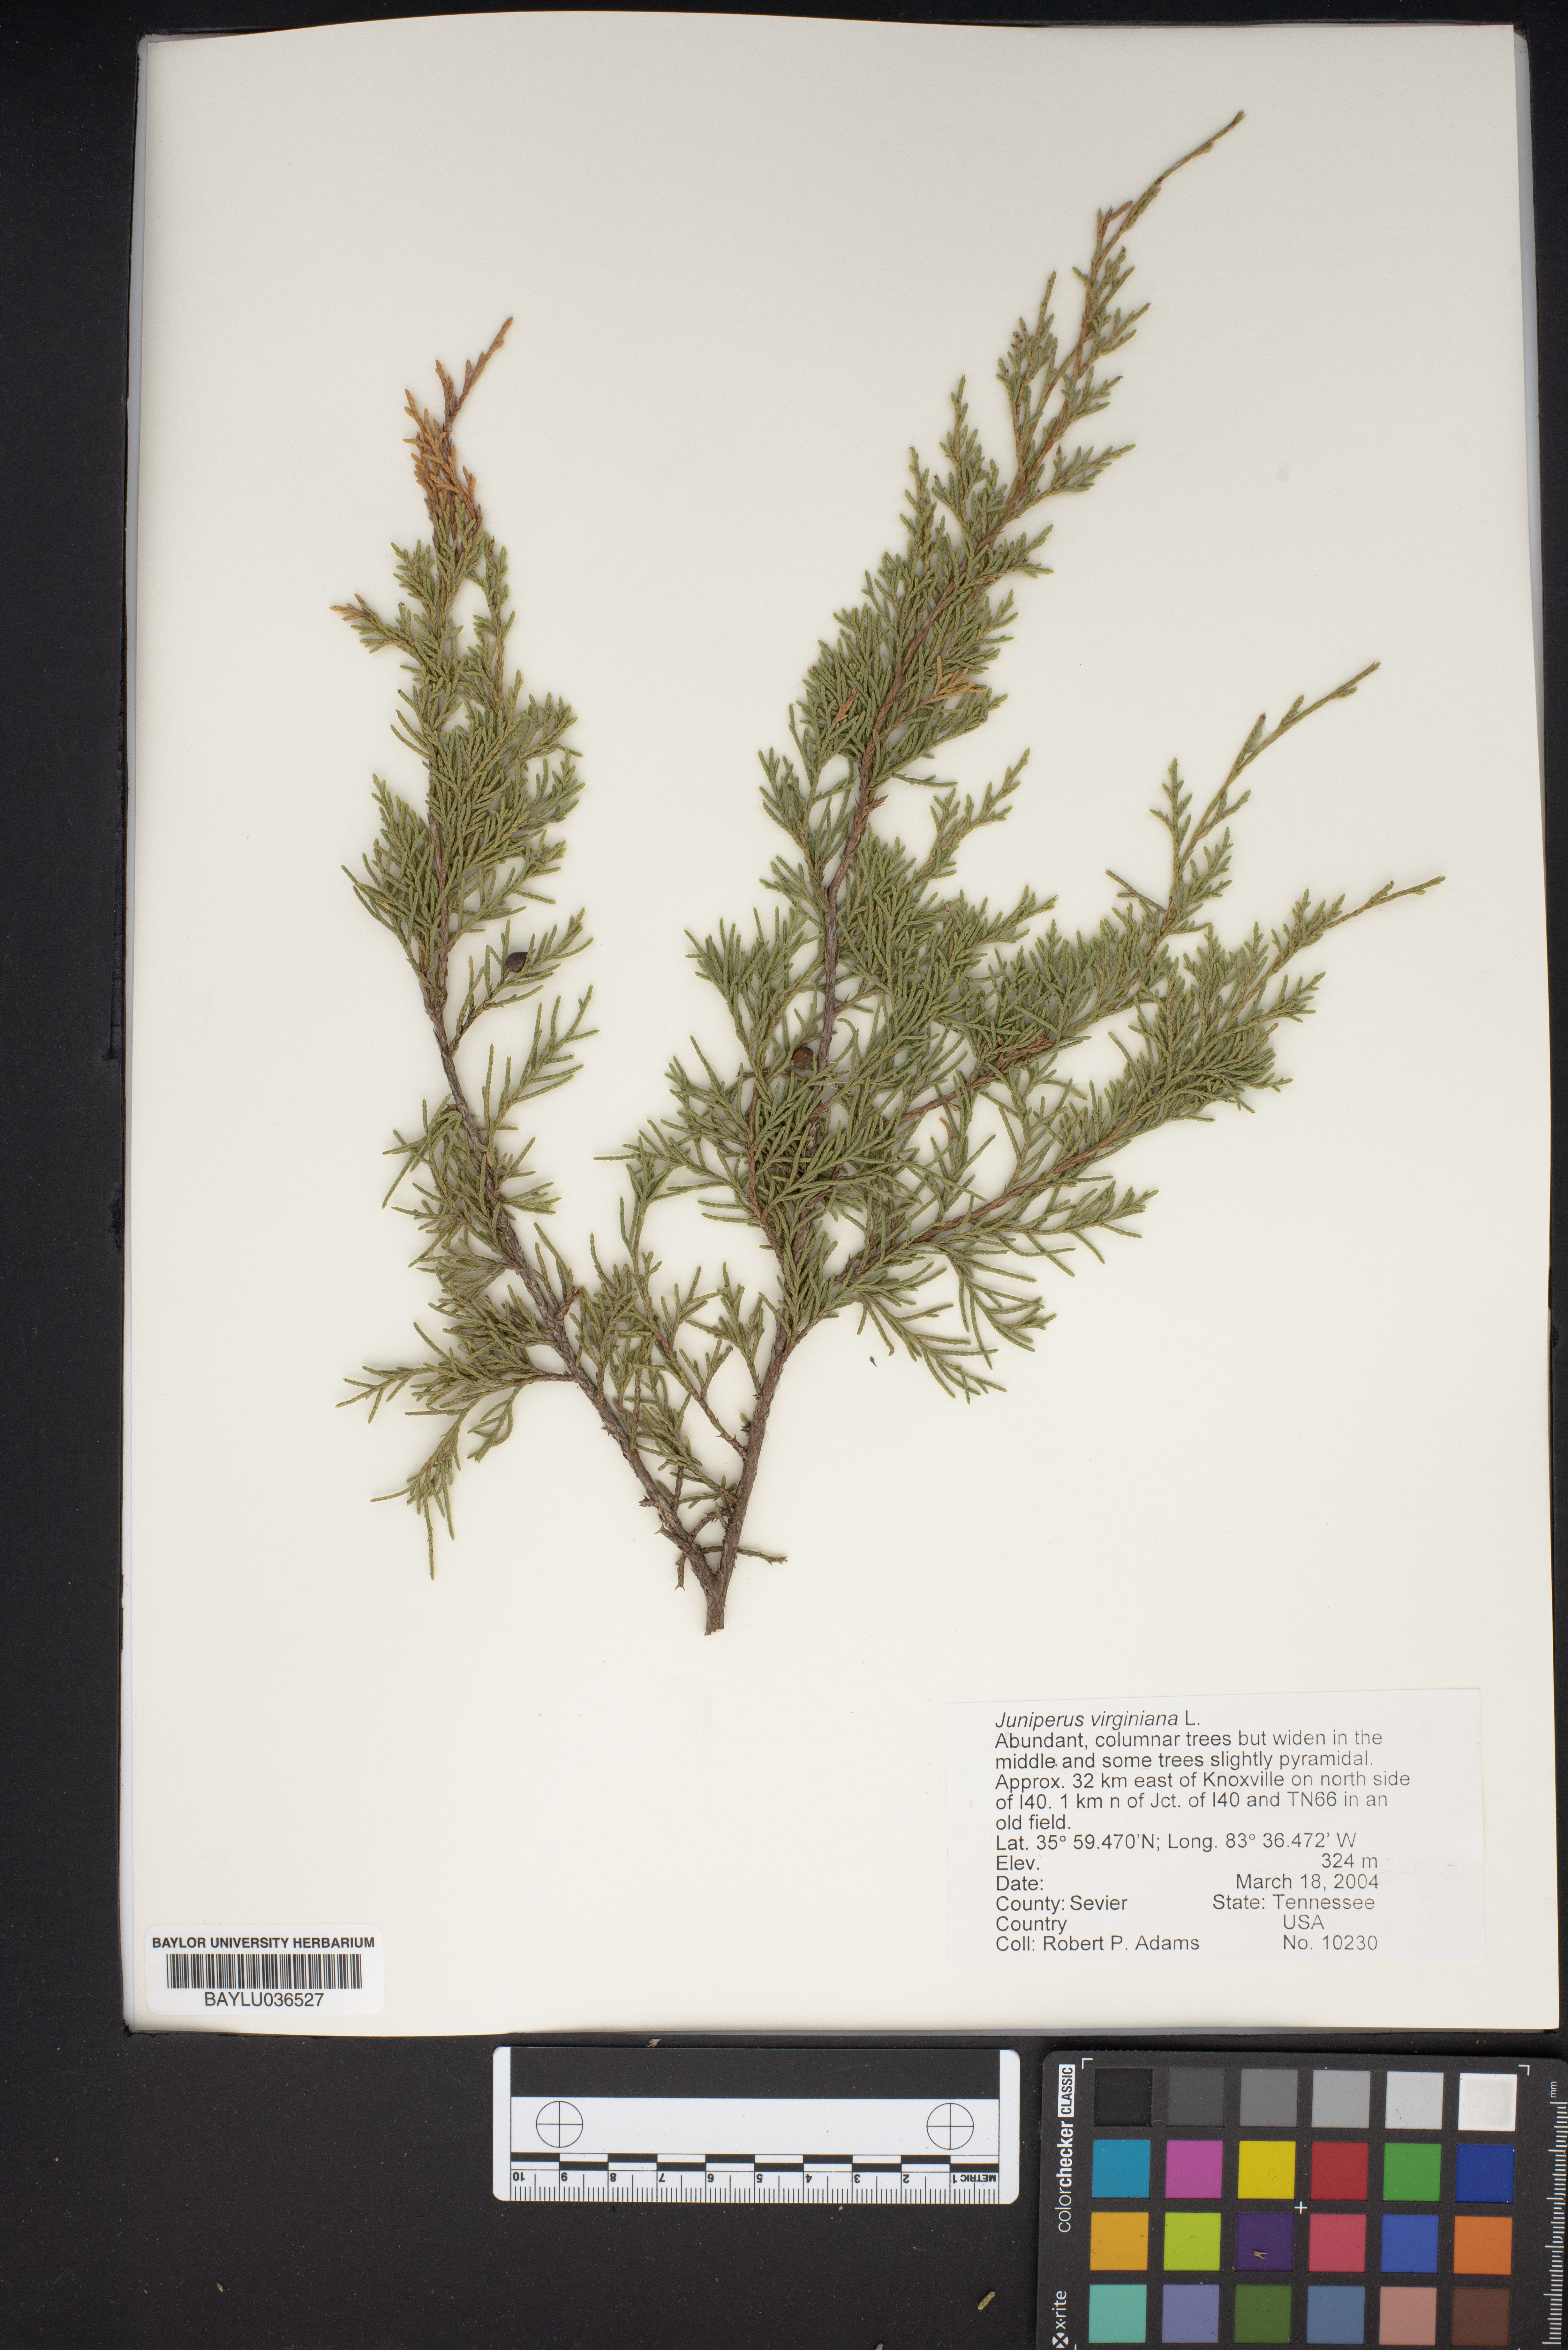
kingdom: Plantae
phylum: Tracheophyta
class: Pinopsida
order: Pinales
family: Cupressaceae
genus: Juniperus
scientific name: Juniperus virginiana
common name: Red juniper
